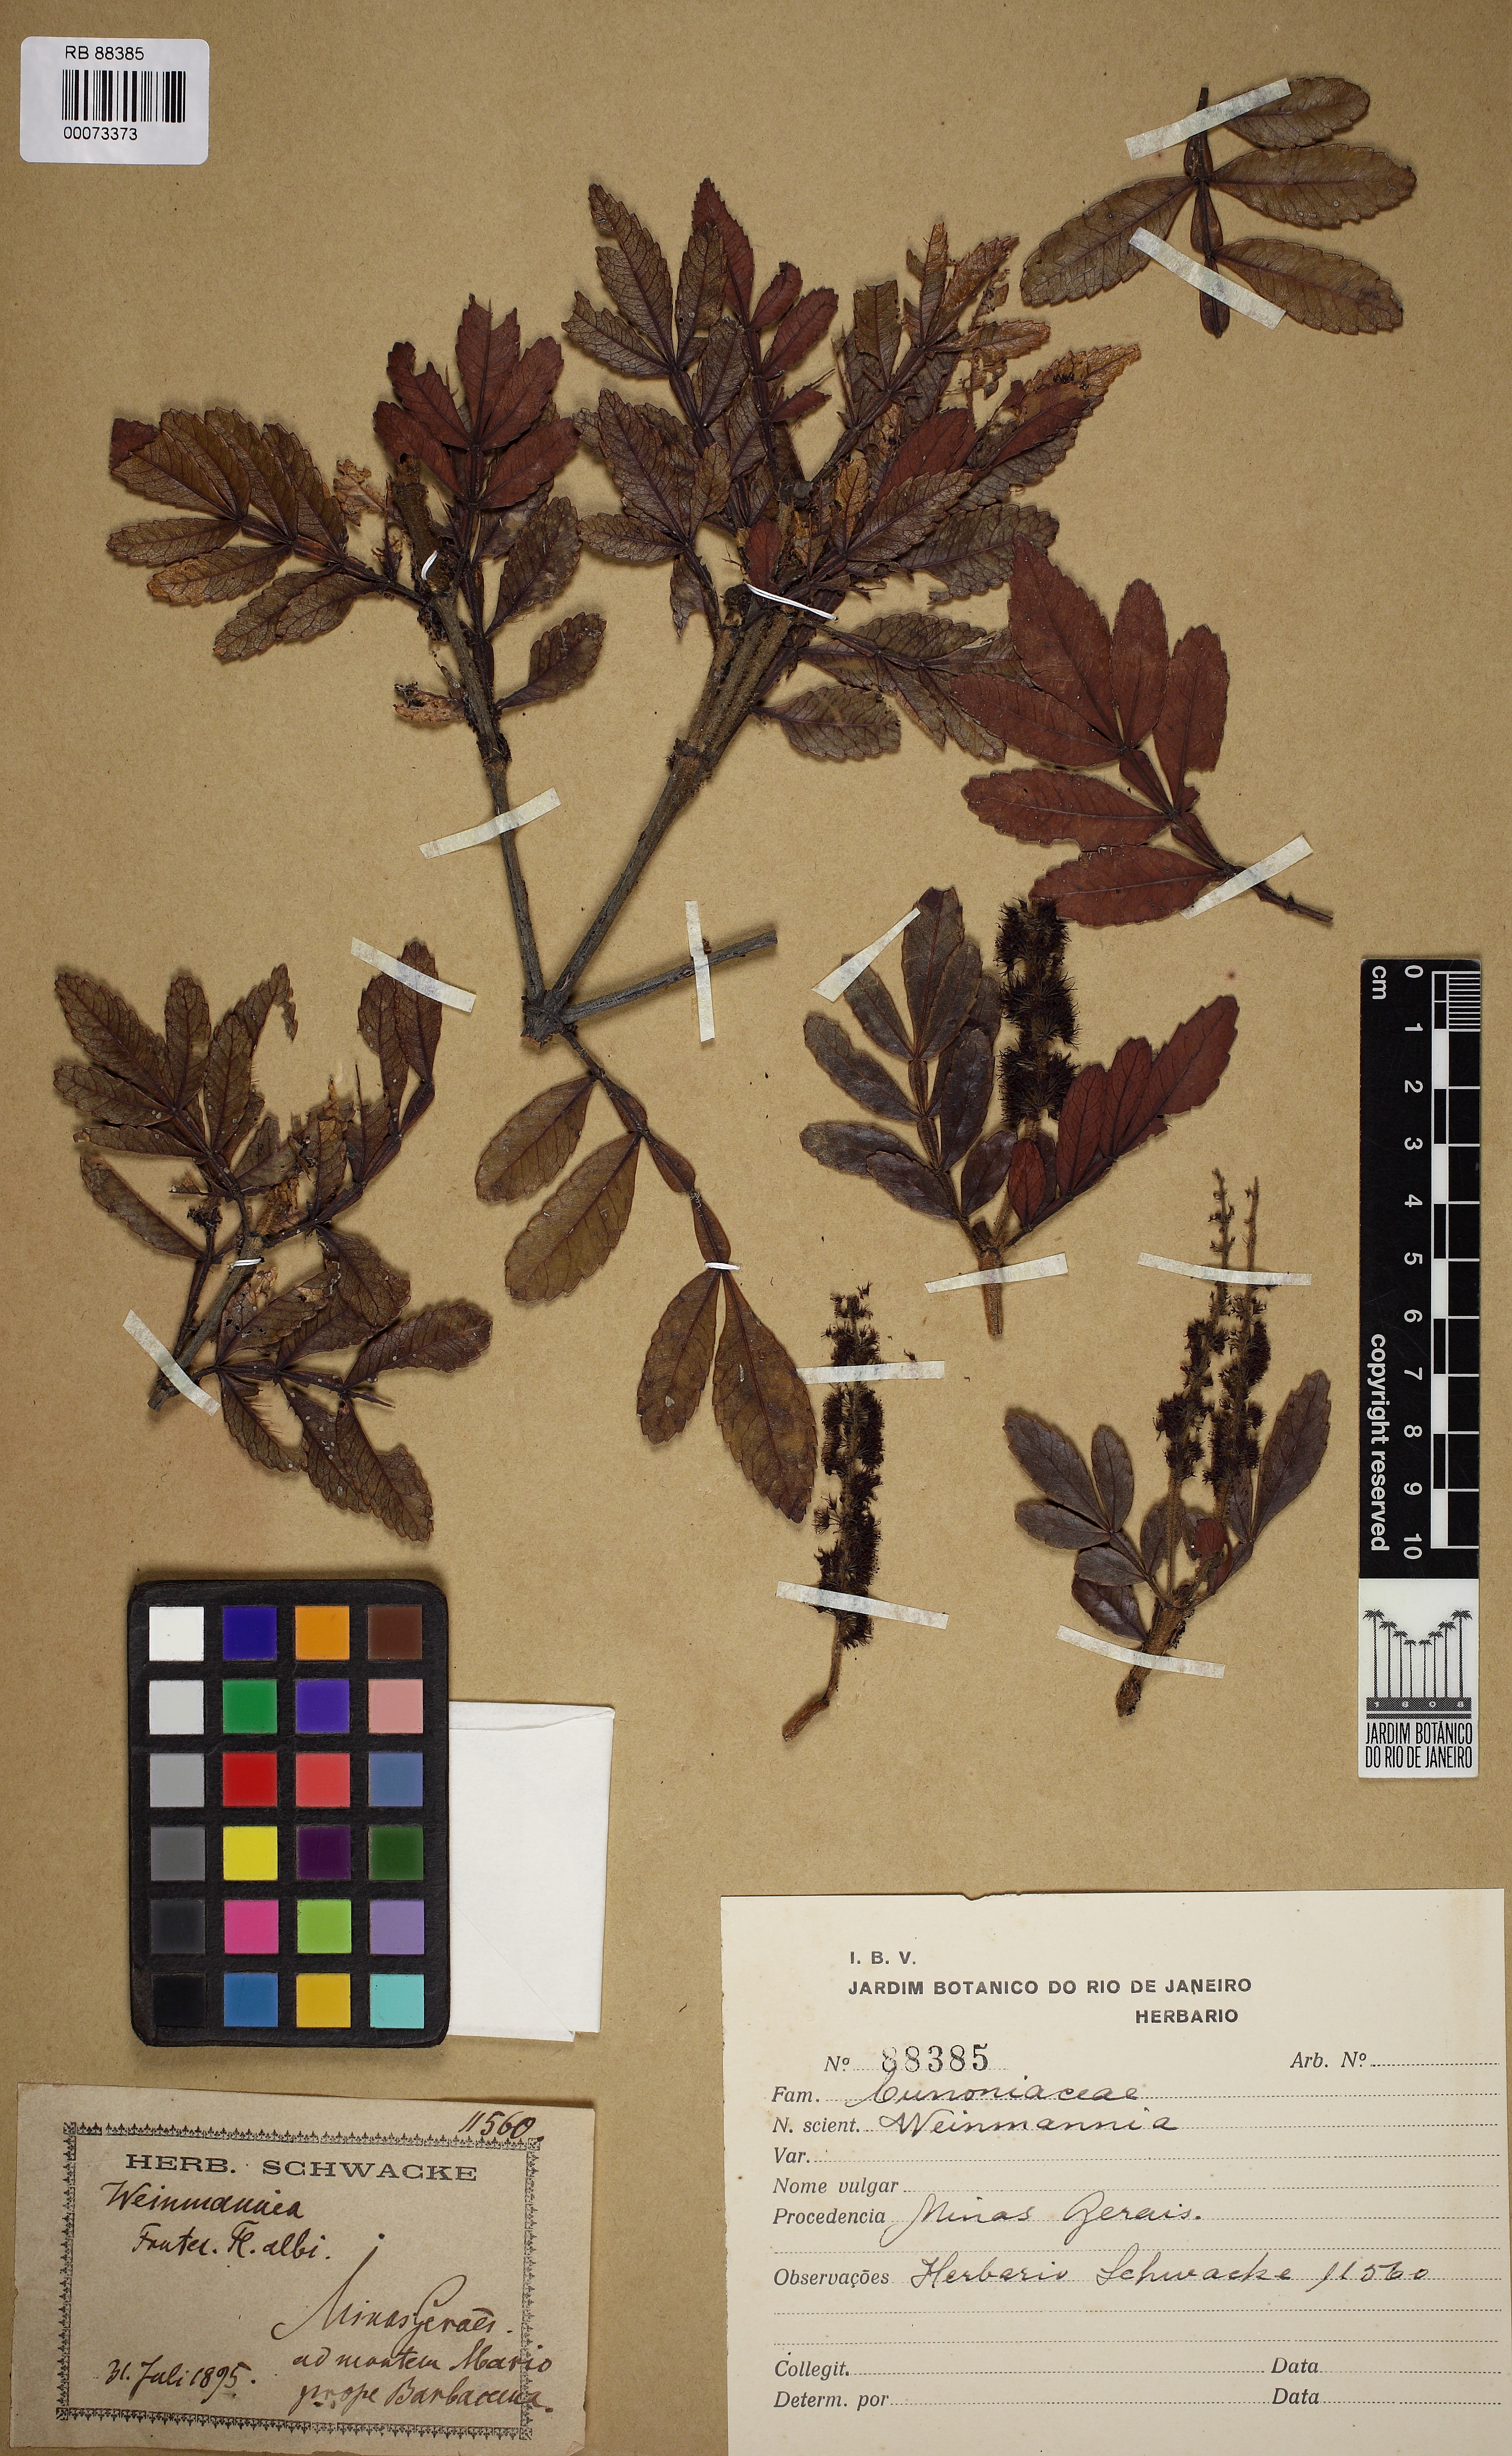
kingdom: Plantae
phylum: Tracheophyta
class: Magnoliopsida
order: Oxalidales
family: Cunoniaceae
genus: Weinmannia
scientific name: Weinmannia
